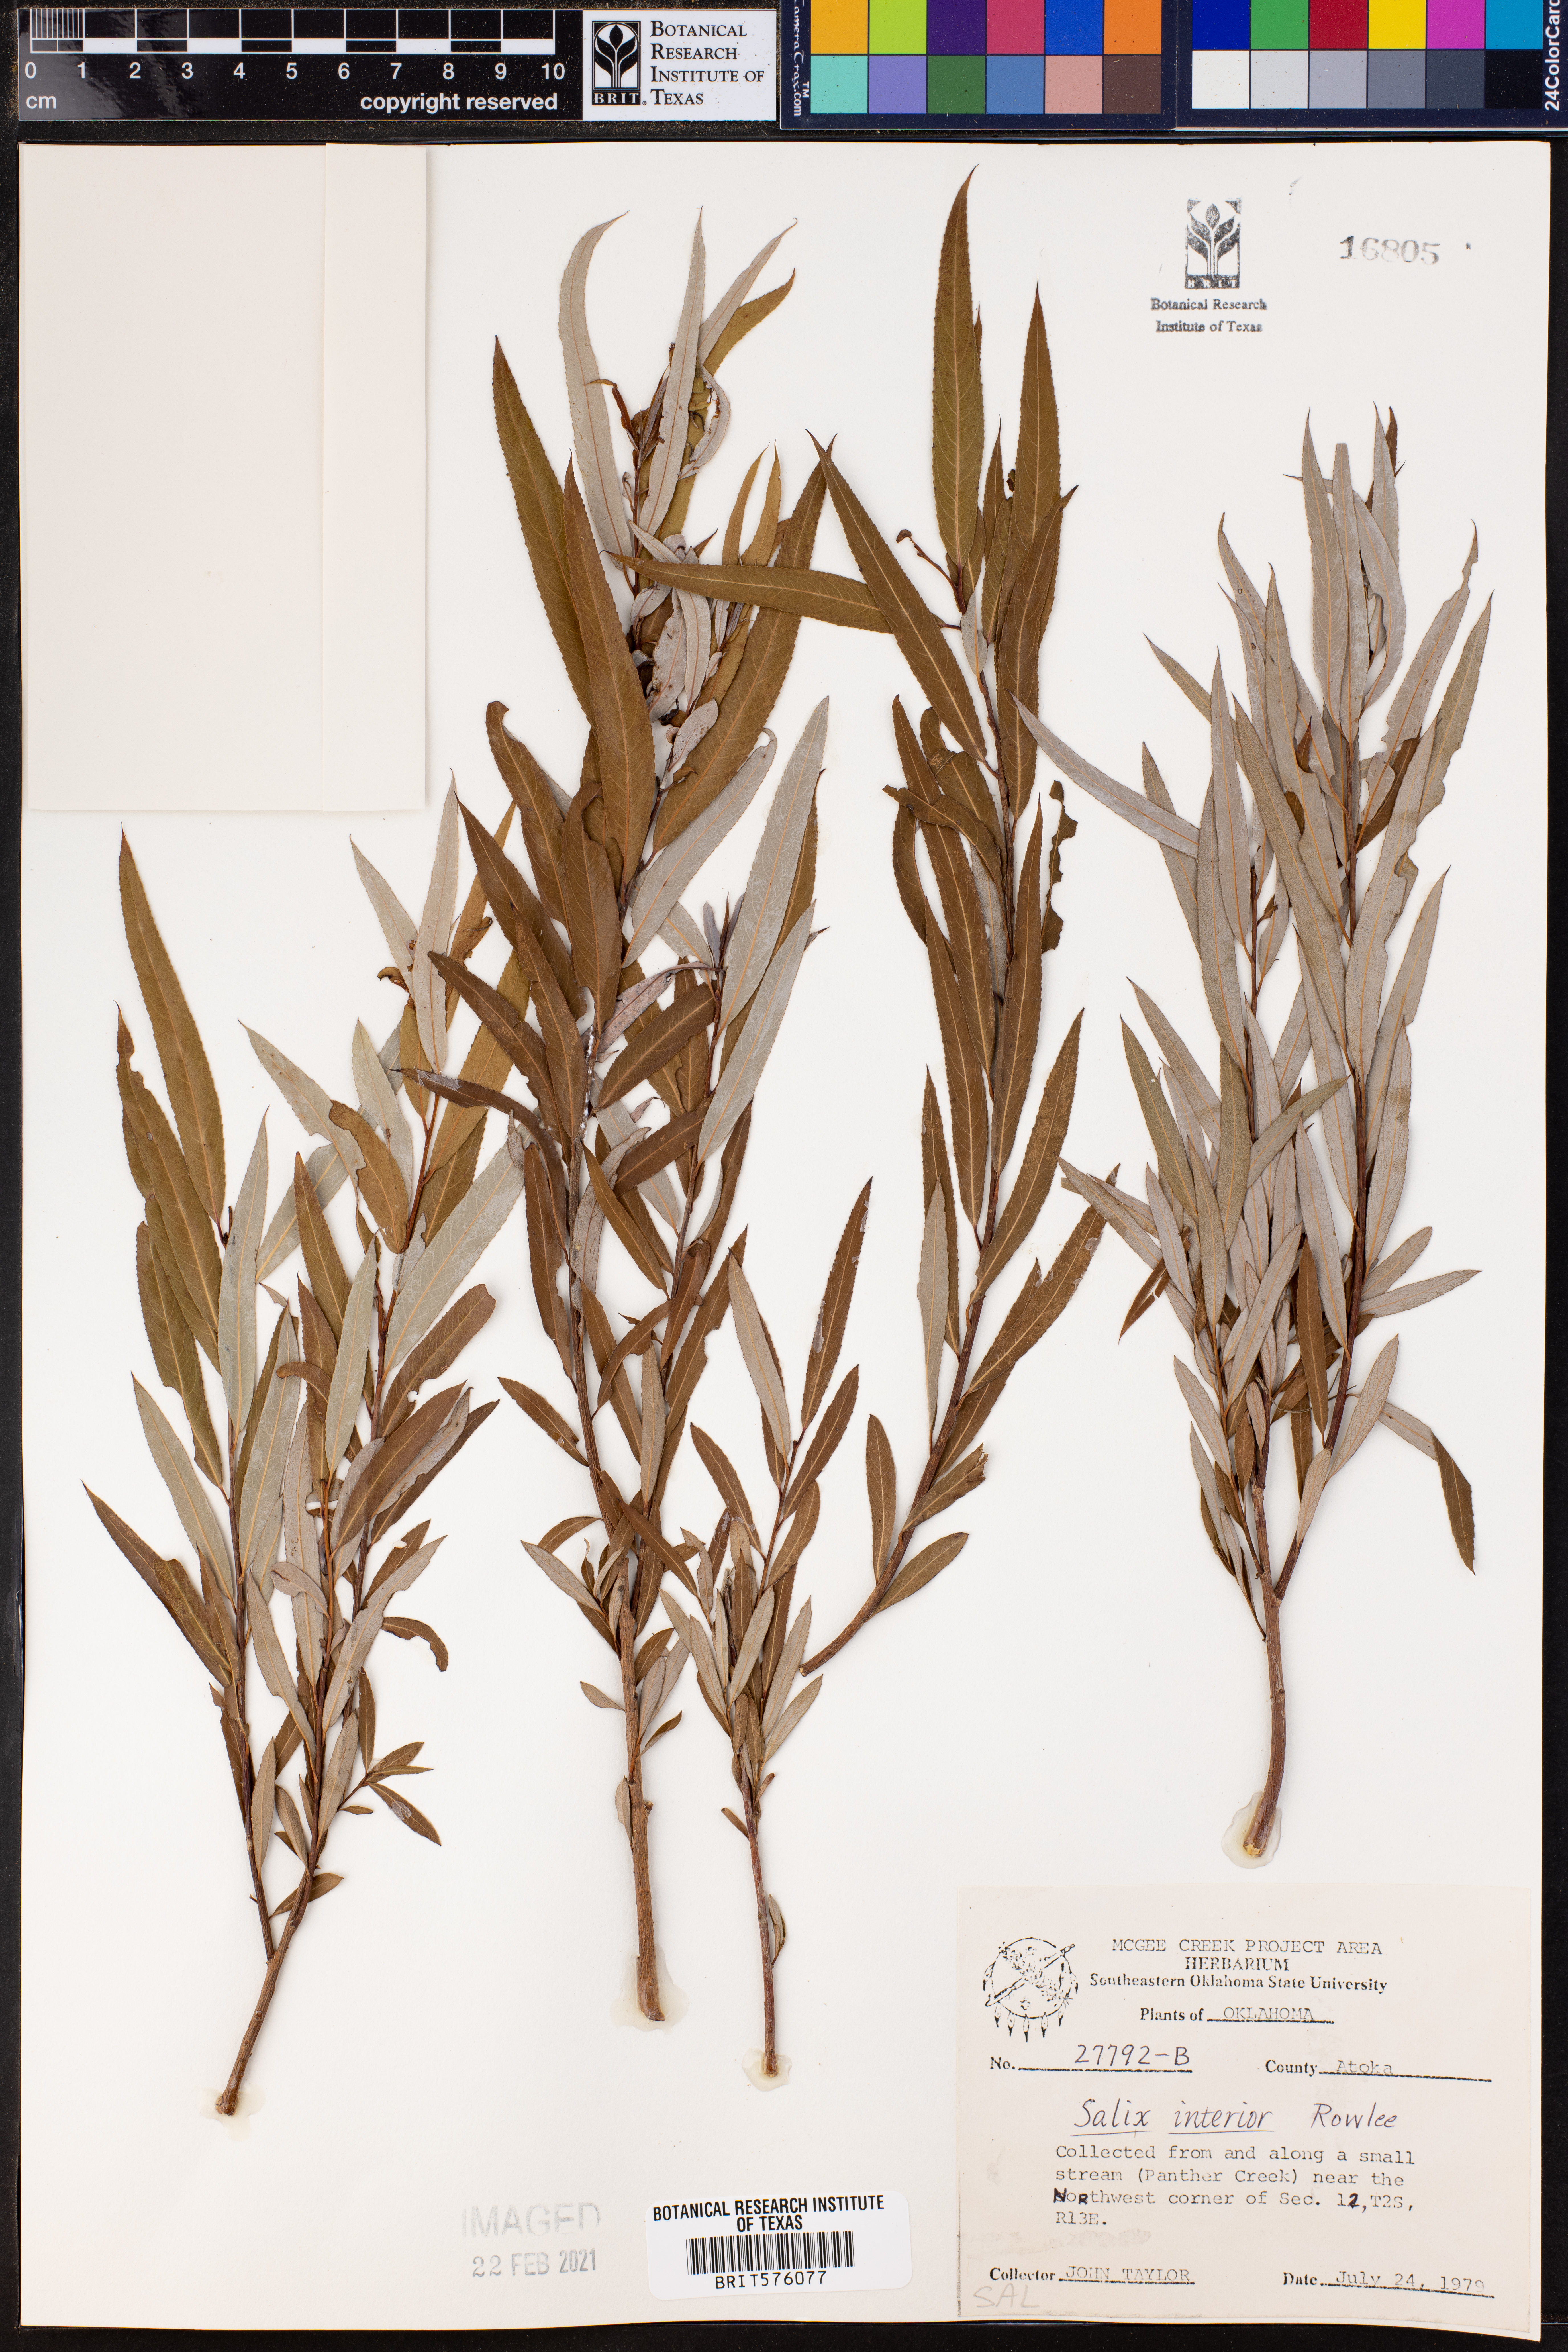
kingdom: Plantae
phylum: Tracheophyta
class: Magnoliopsida
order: Malpighiales
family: Salicaceae
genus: Salix
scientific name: Salix interior
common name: Sandbar willow
